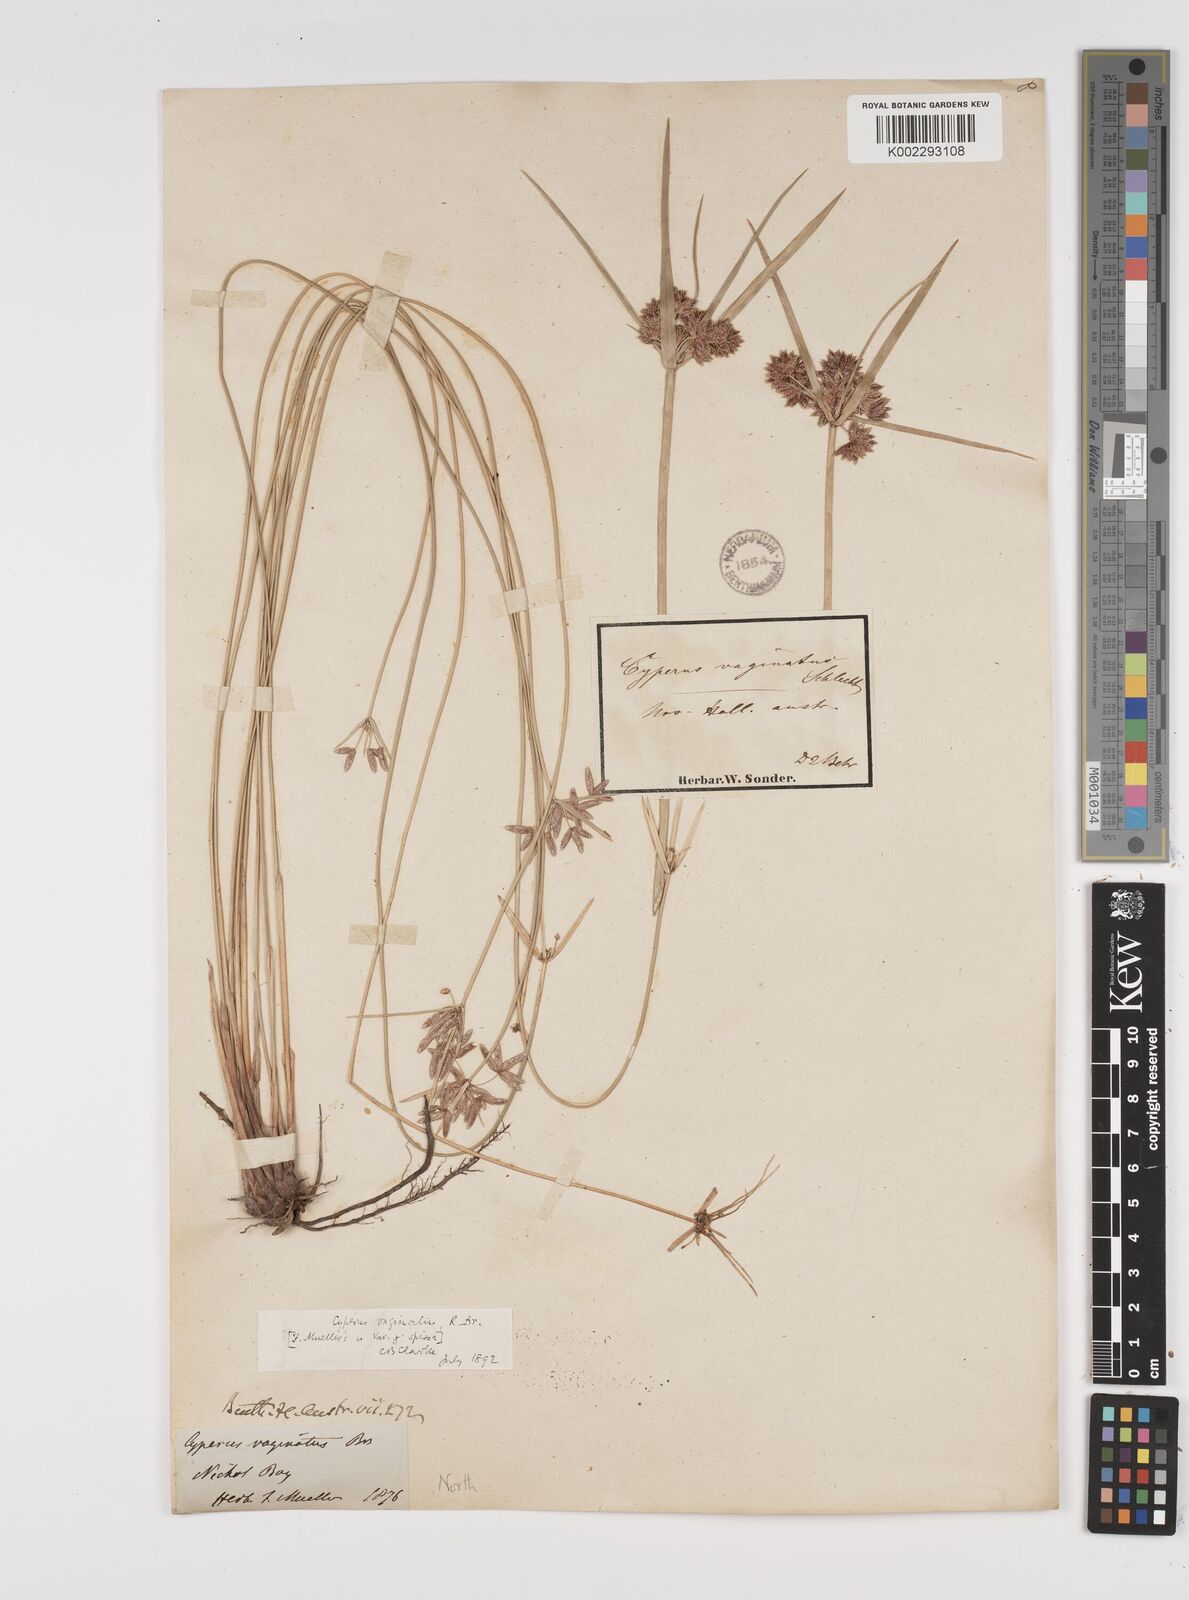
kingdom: Plantae
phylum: Tracheophyta
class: Liliopsida
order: Poales
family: Cyperaceae
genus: Cyperus
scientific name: Cyperus vaginatus
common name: Stiff-leaved flat-sedge
